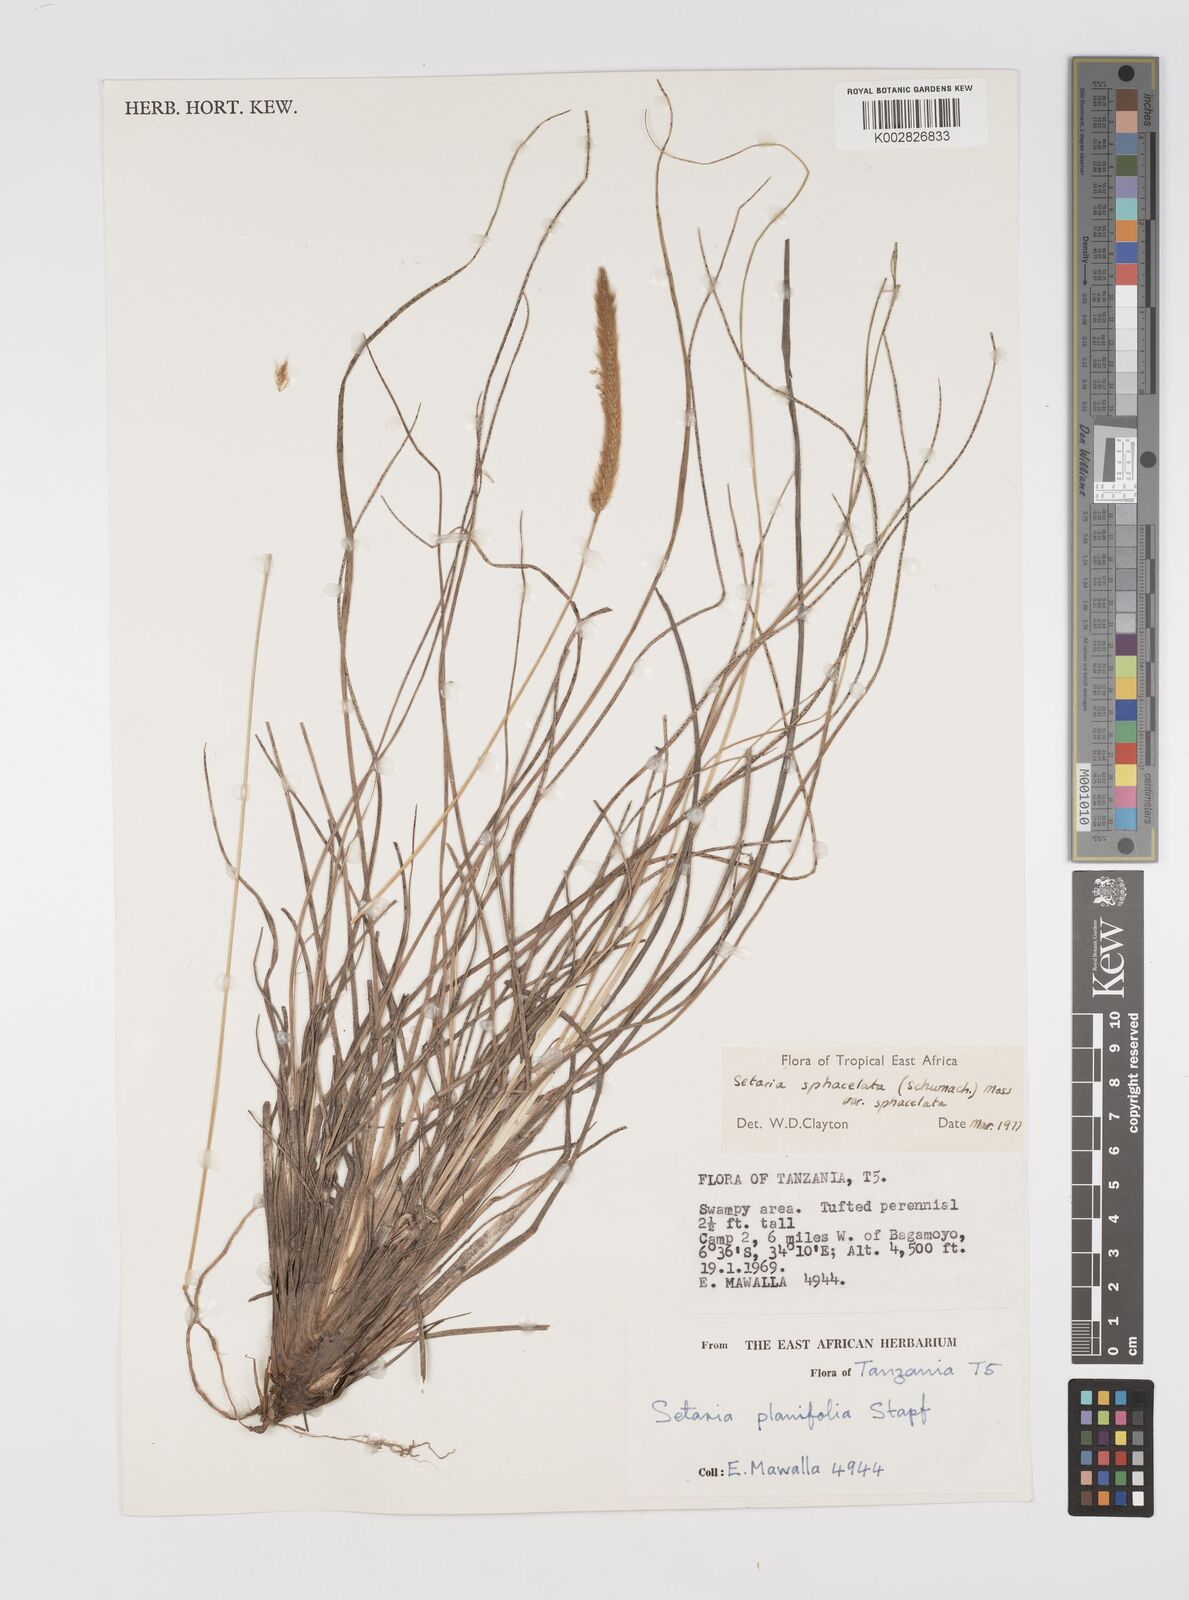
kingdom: Plantae
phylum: Tracheophyta
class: Liliopsida
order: Poales
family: Poaceae
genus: Setaria
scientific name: Setaria sphacelata
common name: African bristlegrass
